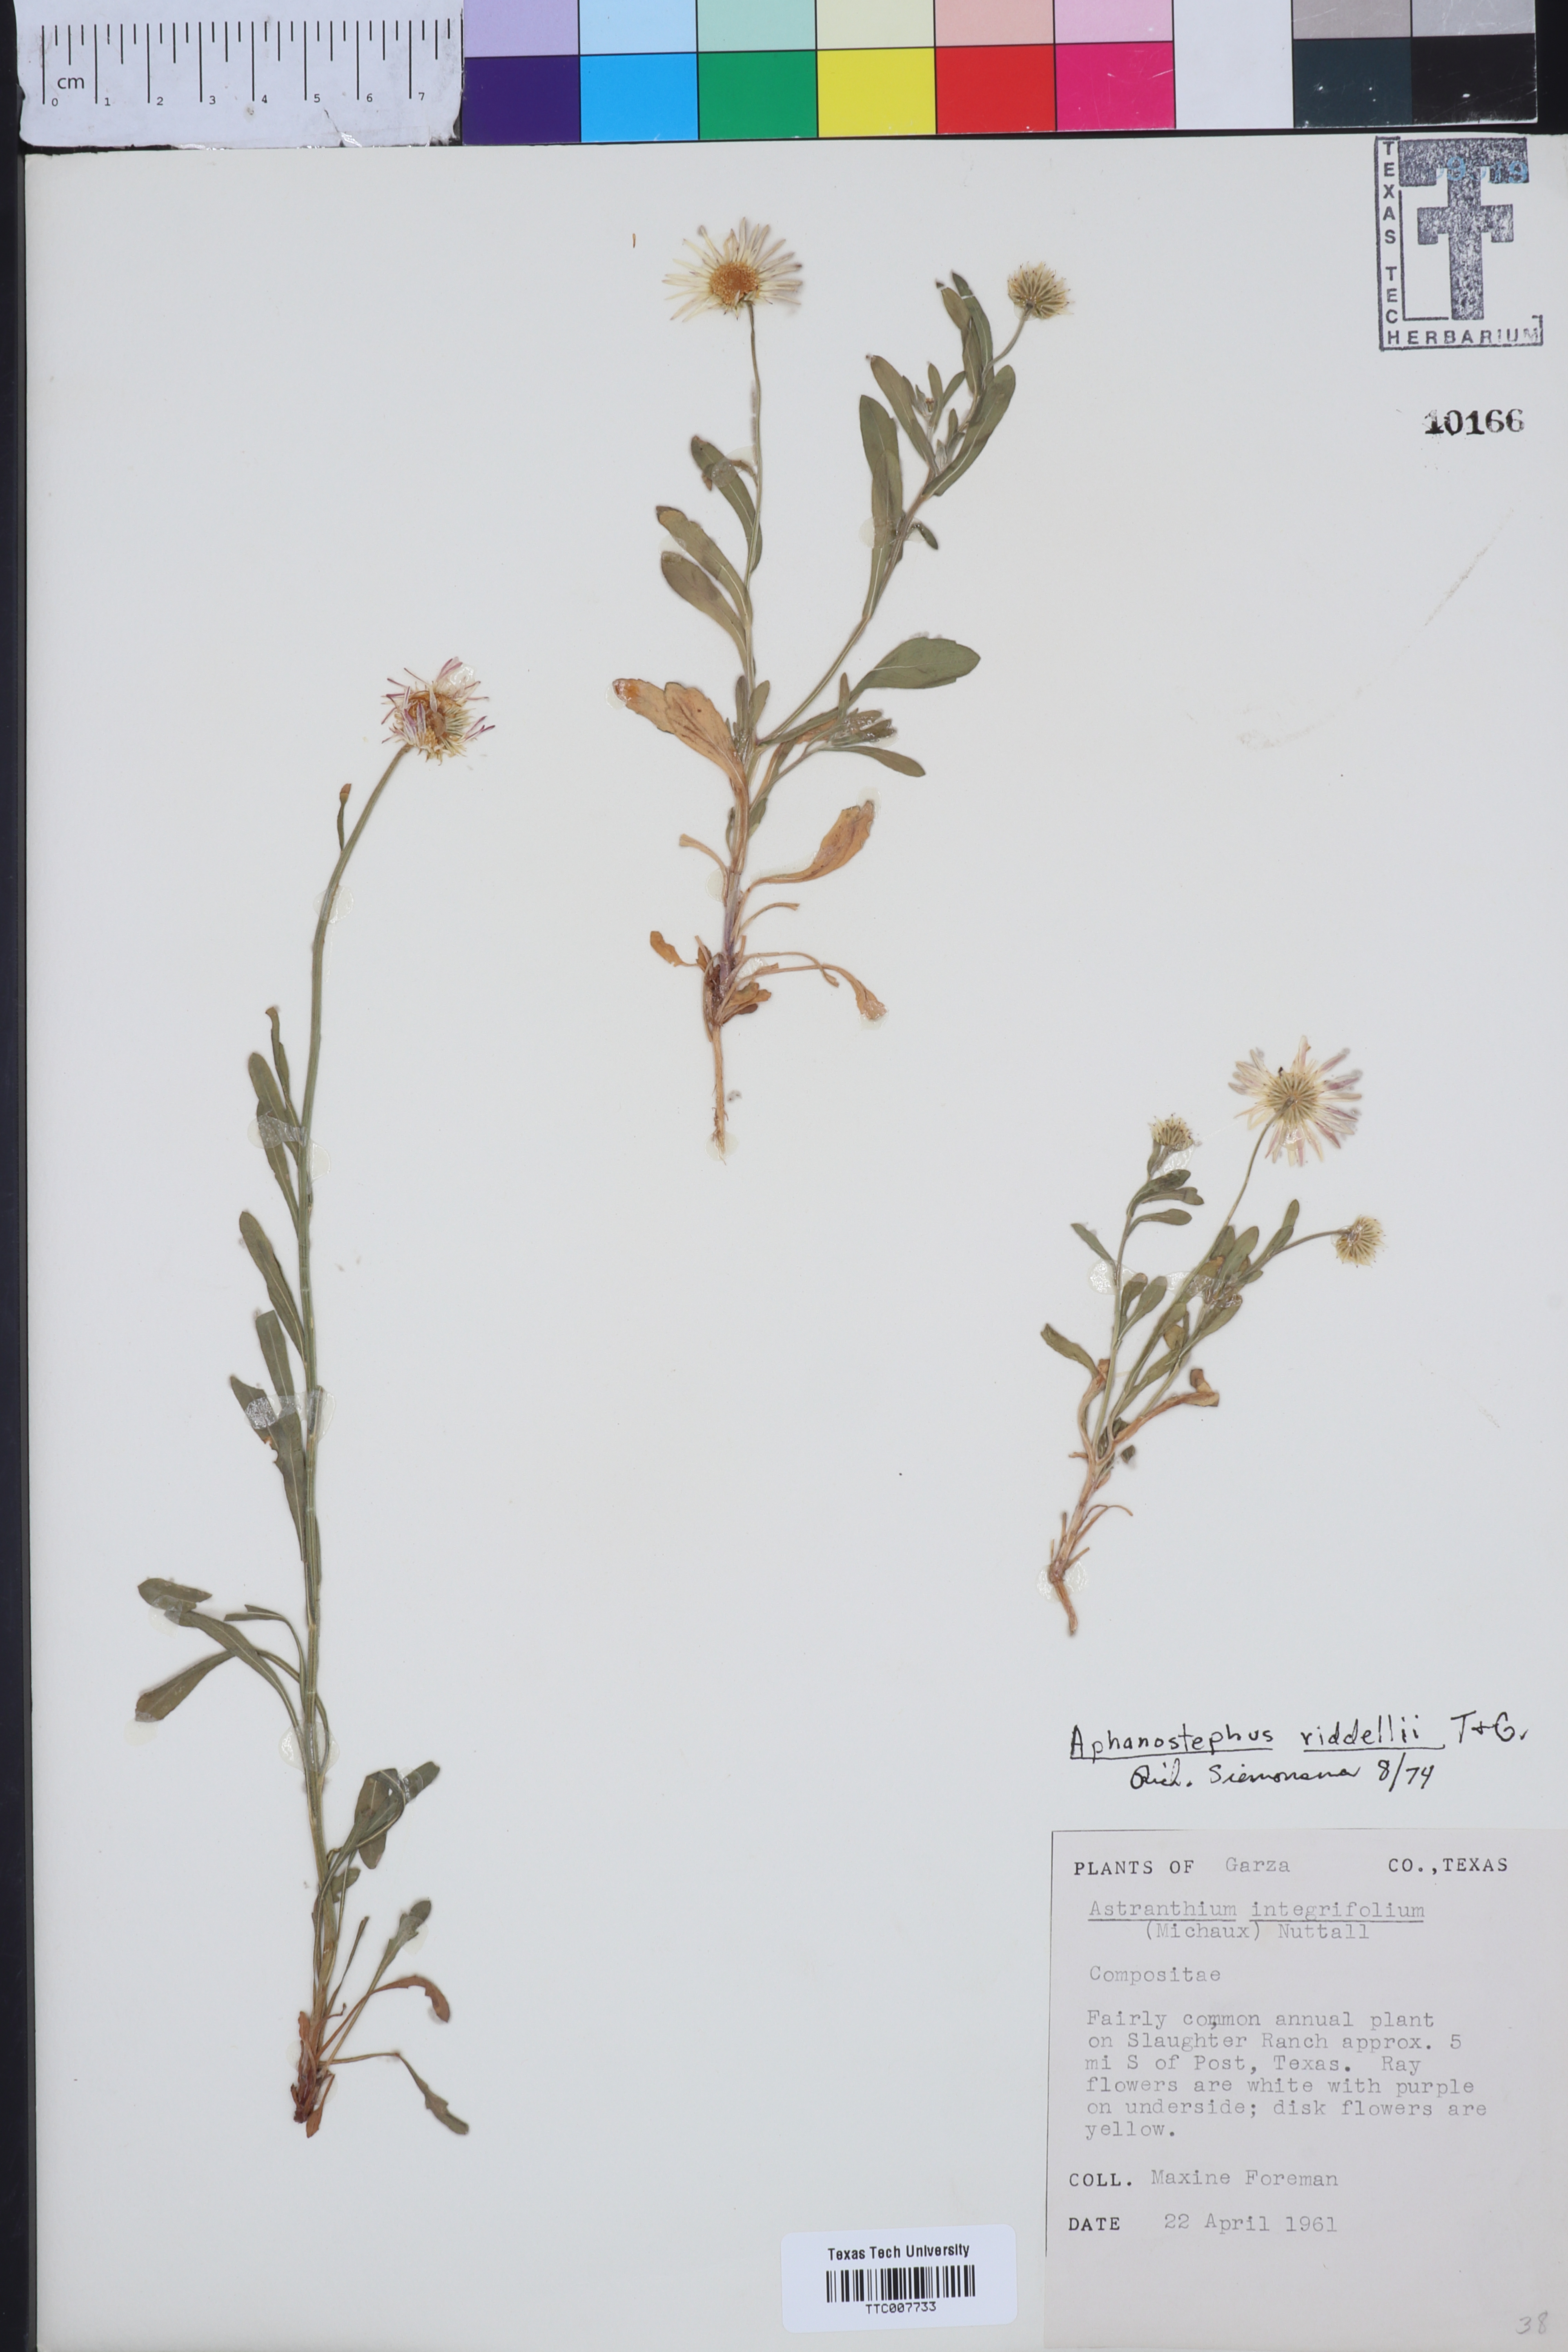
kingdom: Plantae
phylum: Tracheophyta
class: Magnoliopsida
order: Asterales
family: Asteraceae
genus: Aphanostephus
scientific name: Aphanostephus riddellii
